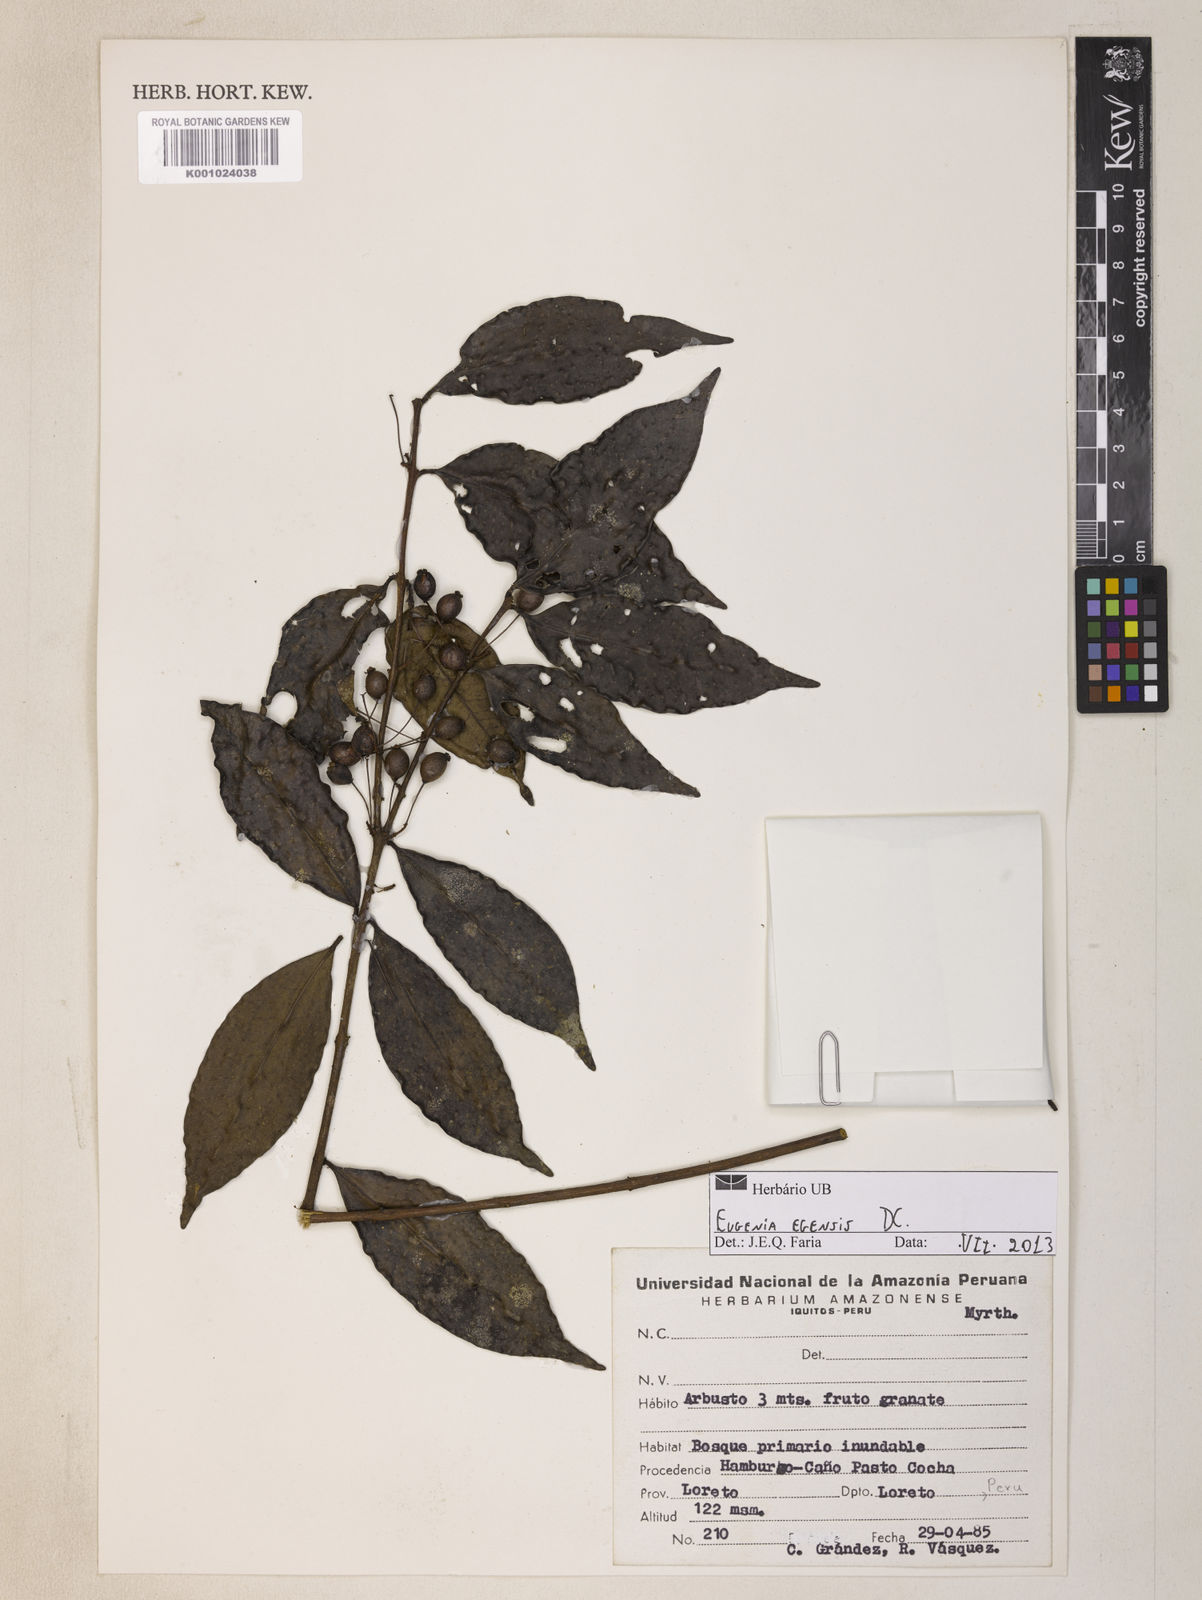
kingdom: Plantae
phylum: Tracheophyta
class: Magnoliopsida
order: Myrtales
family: Myrtaceae
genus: Eugenia
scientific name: Eugenia egensis
